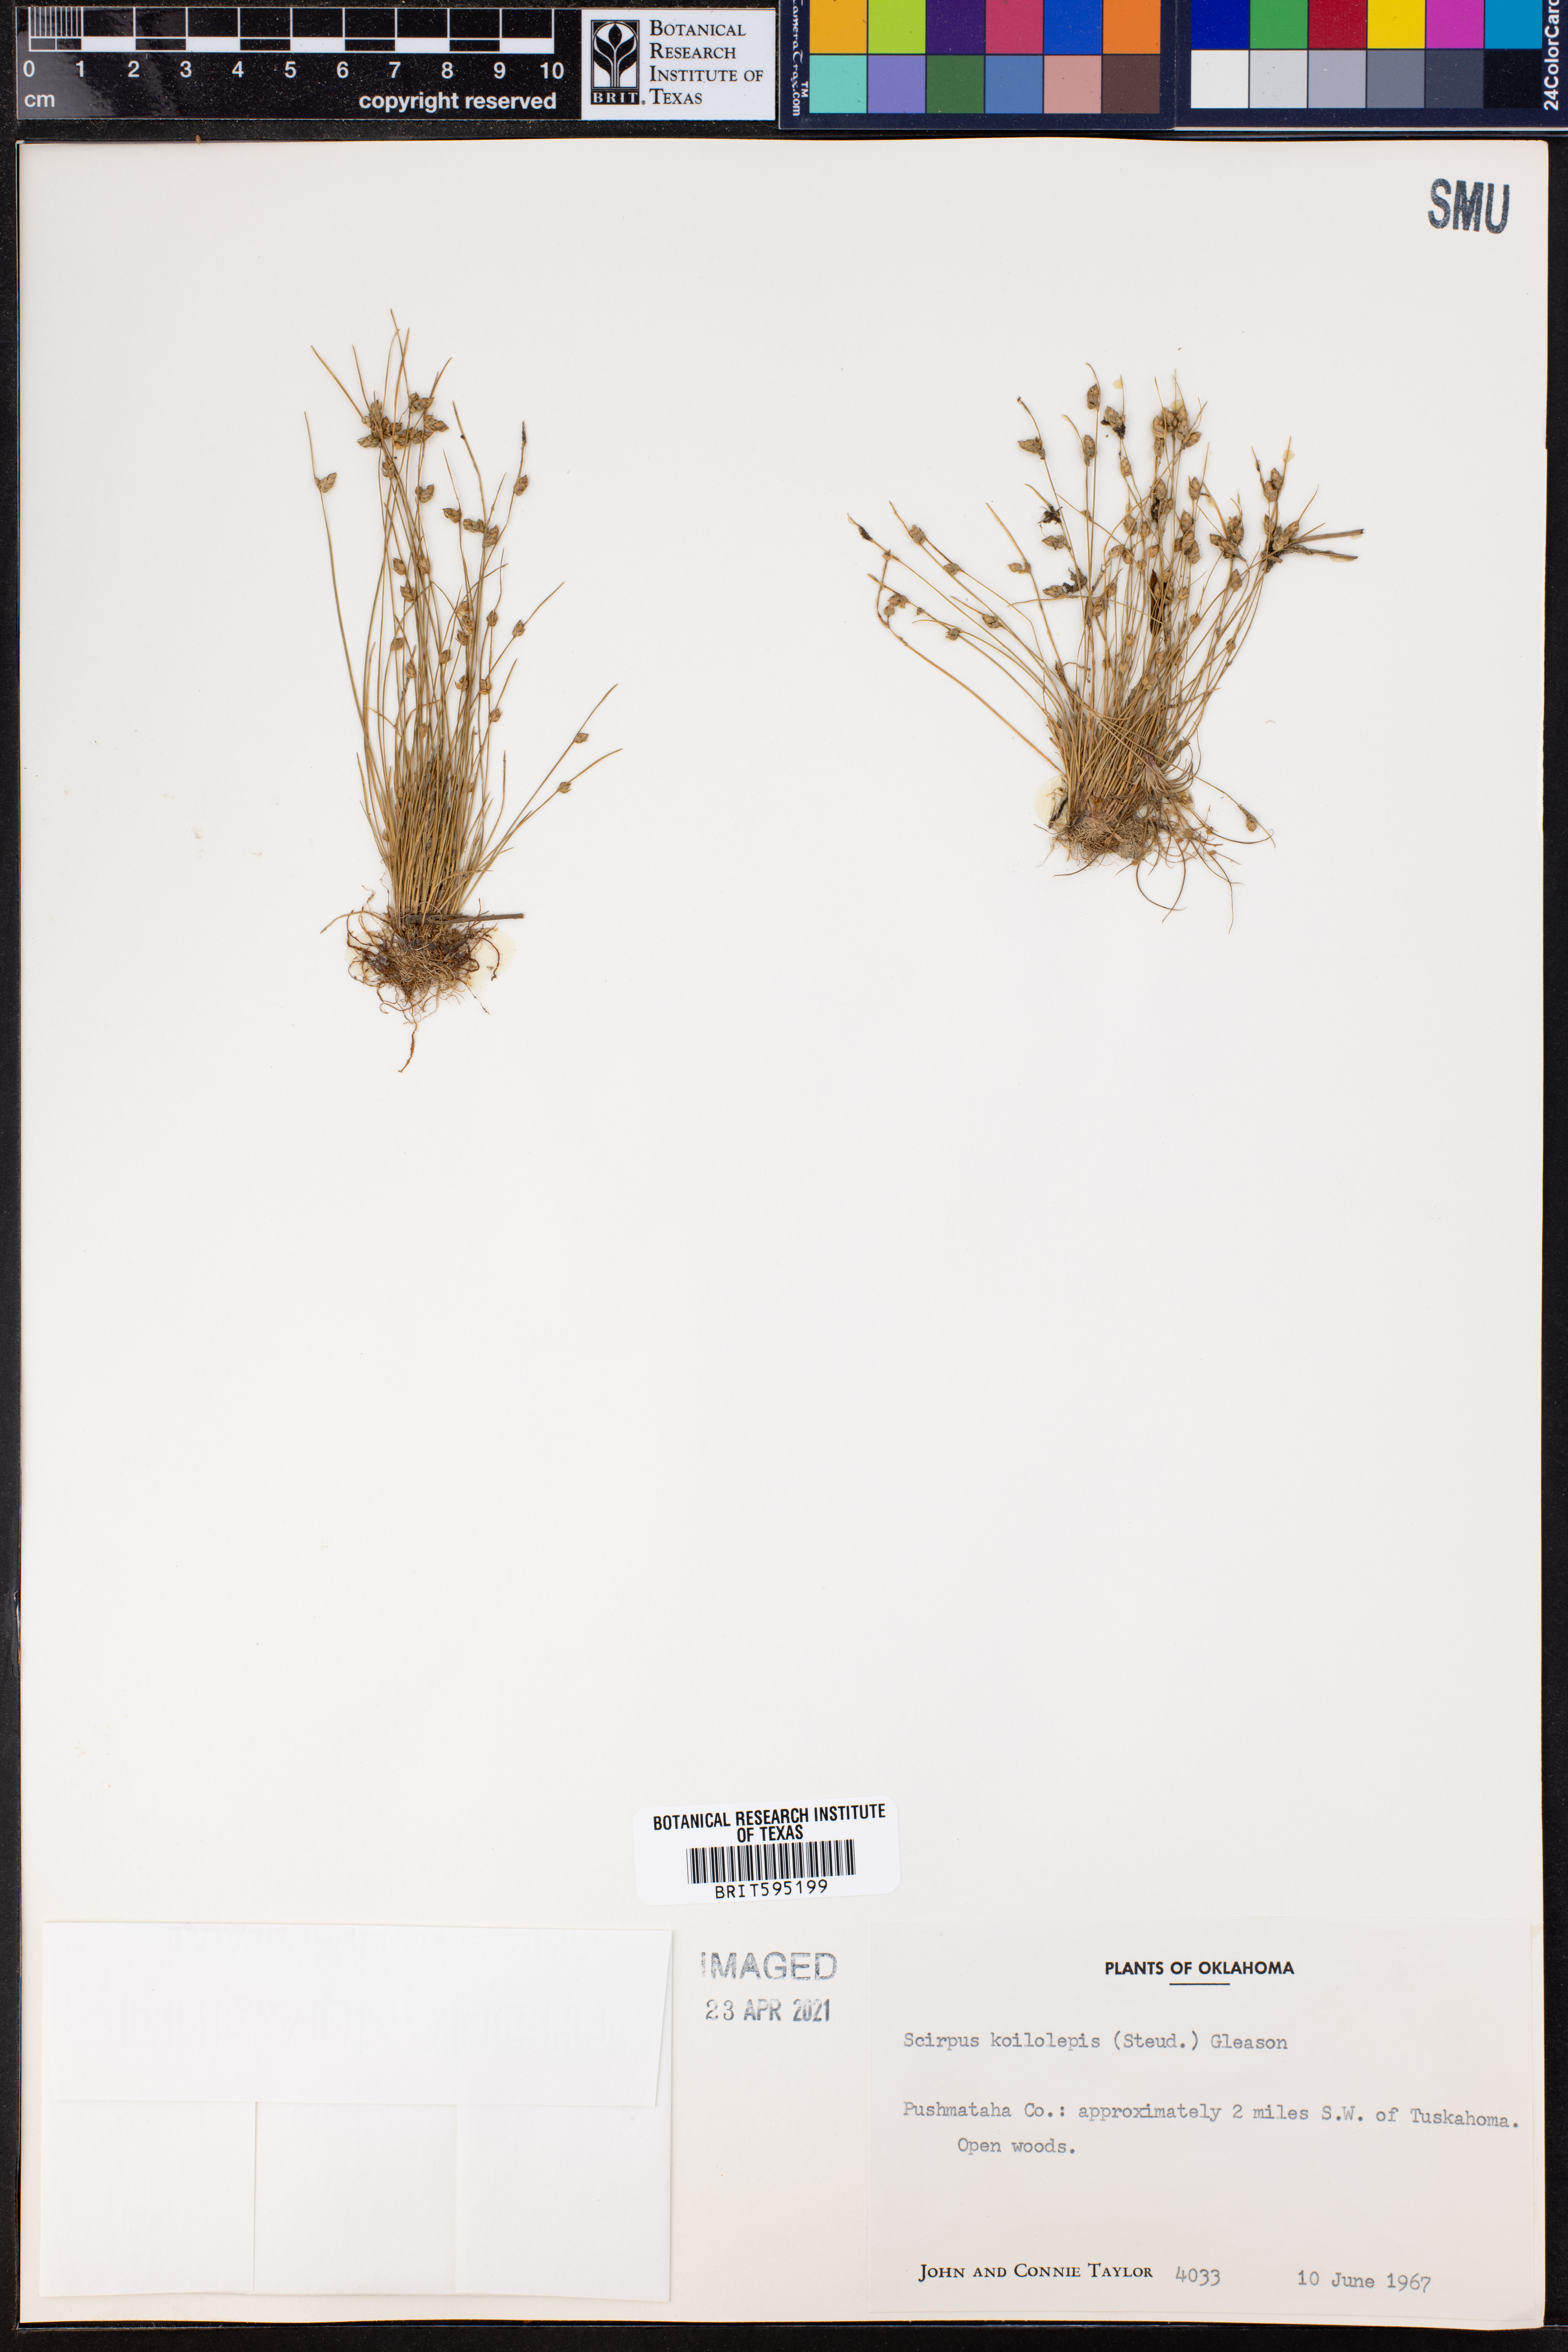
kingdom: Plantae
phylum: Tracheophyta
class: Liliopsida
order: Poales
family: Cyperaceae
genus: Isolepis
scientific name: Isolepis carinata
